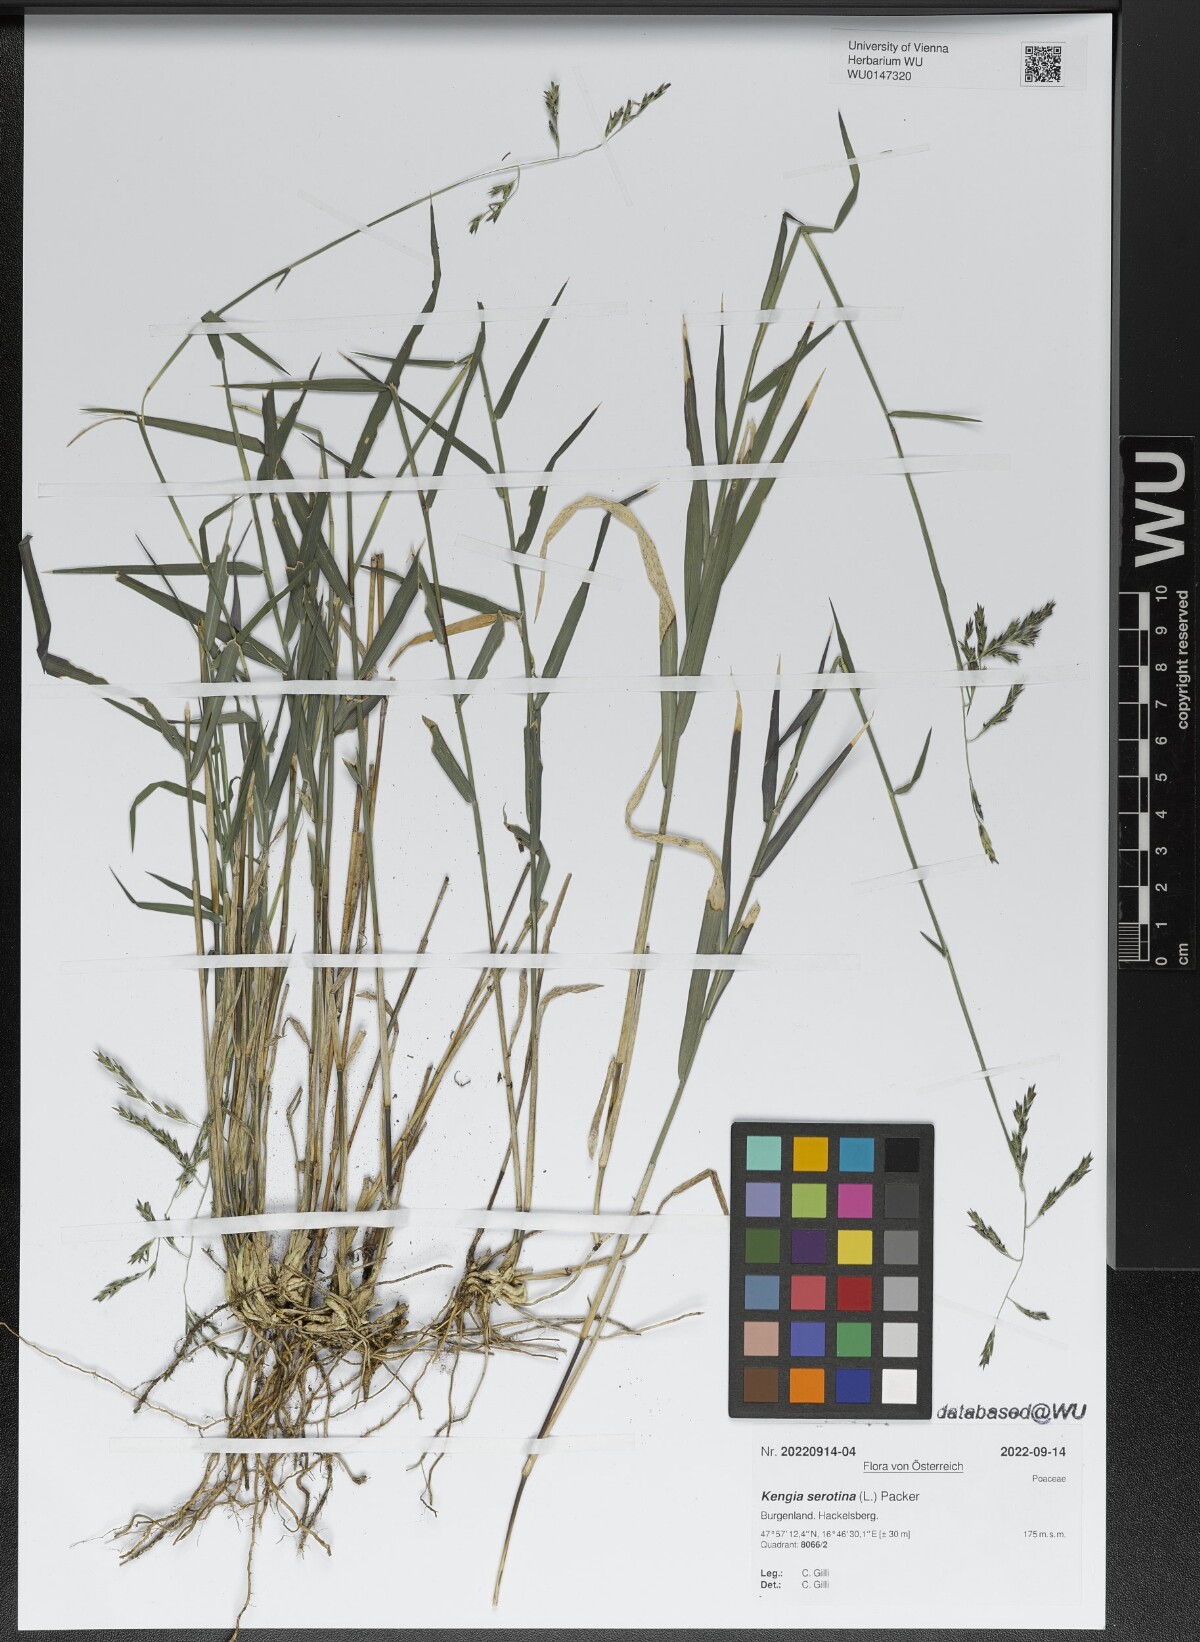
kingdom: Plantae
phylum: Tracheophyta
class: Liliopsida
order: Poales
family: Poaceae
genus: Cleistogenes
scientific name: Cleistogenes serotina
